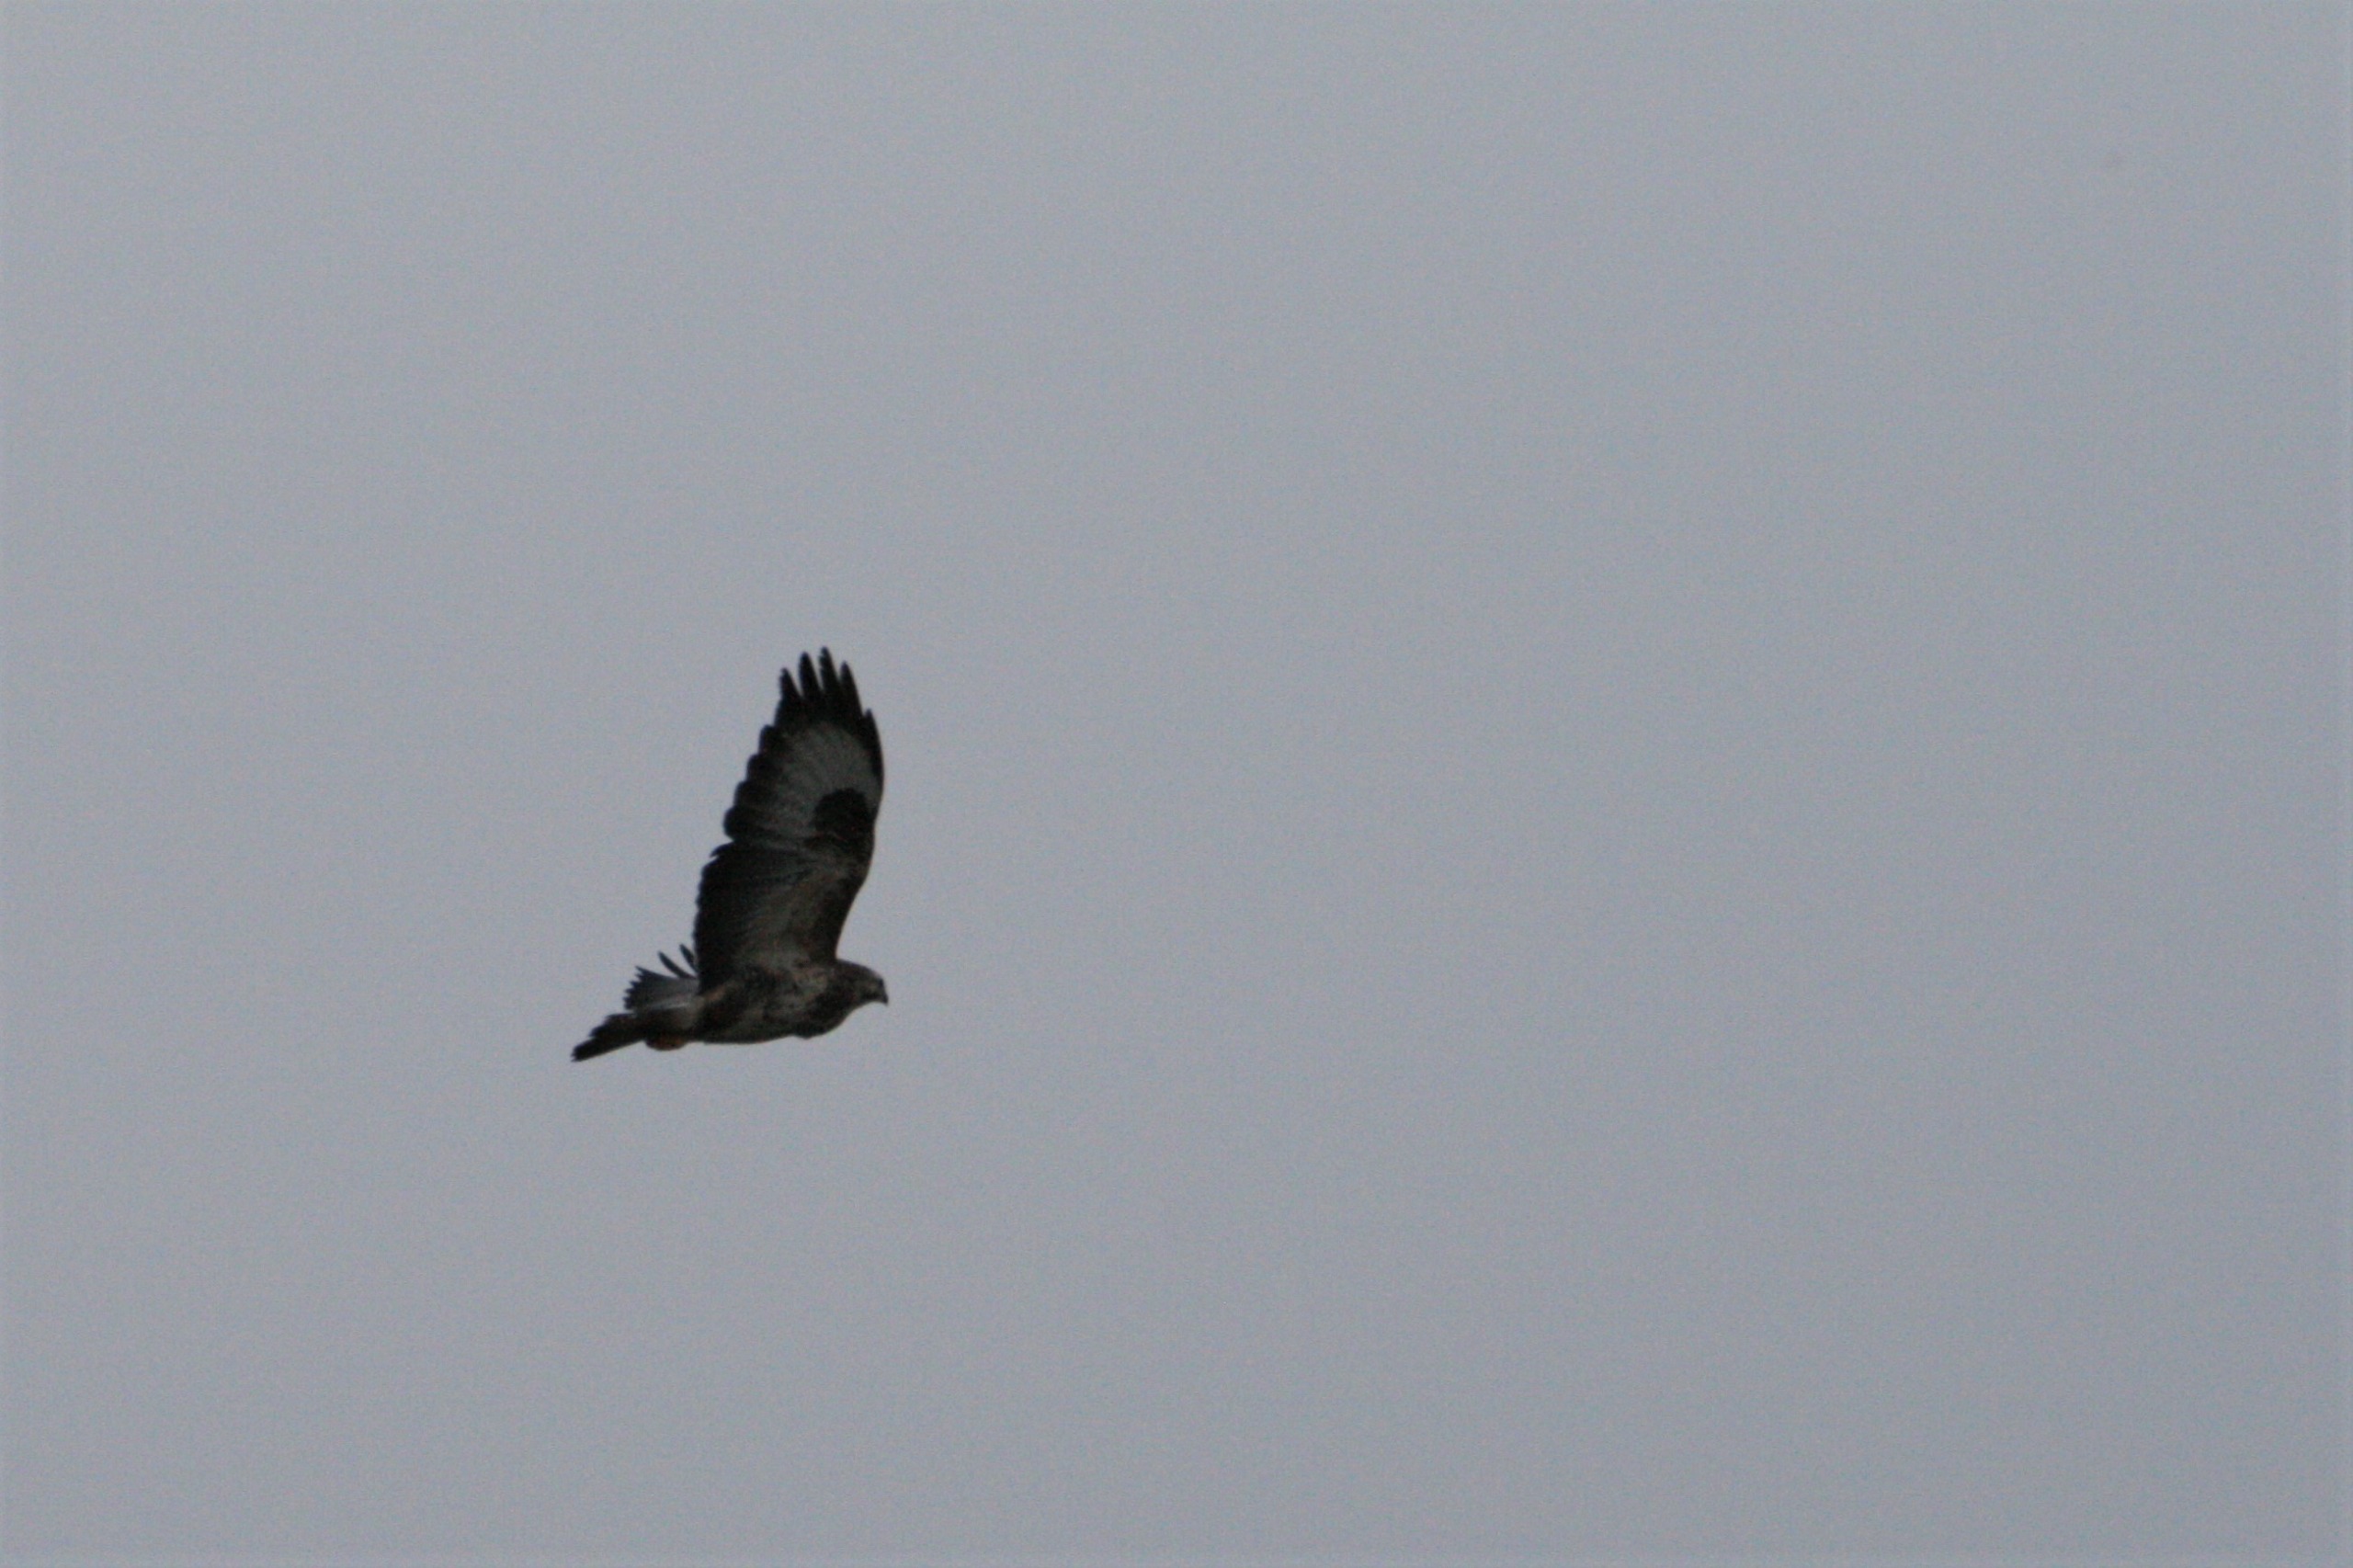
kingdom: Animalia
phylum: Chordata
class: Aves
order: Accipitriformes
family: Accipitridae
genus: Buteo
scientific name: Buteo buteo
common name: Musvåge
